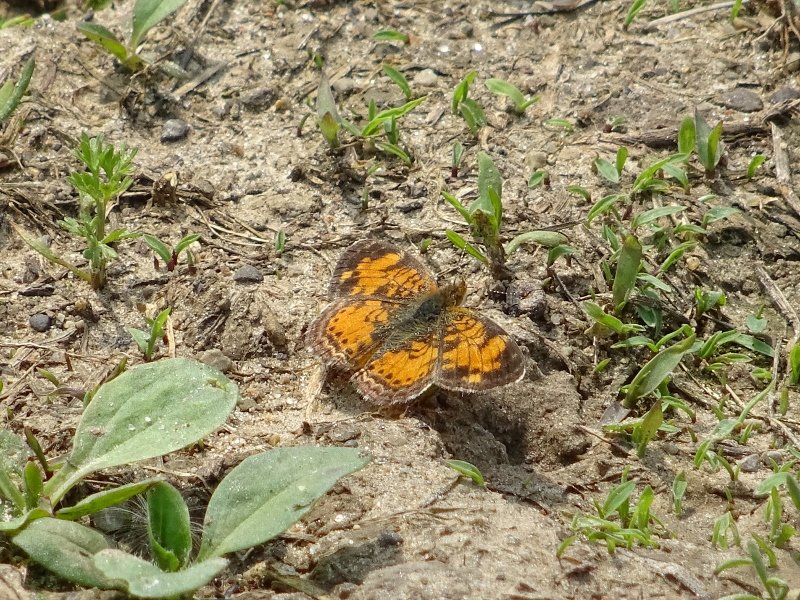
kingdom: Animalia
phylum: Arthropoda
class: Insecta
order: Lepidoptera
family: Nymphalidae
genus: Phyciodes
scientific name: Phyciodes tharos
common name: Northern Crescent
